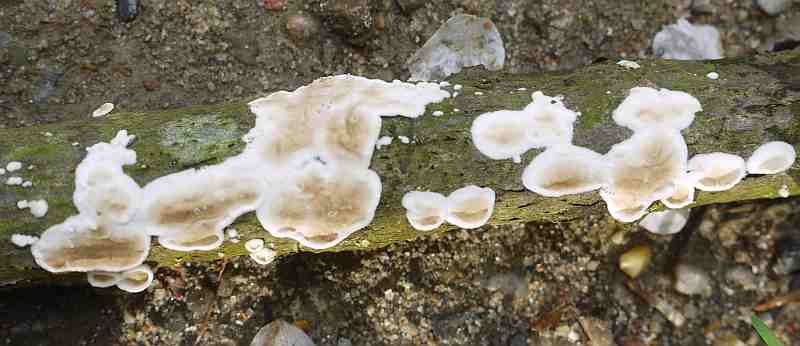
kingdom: Fungi
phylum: Basidiomycota
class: Agaricomycetes
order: Polyporales
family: Irpicaceae
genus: Byssomerulius
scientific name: Byssomerulius corium
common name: læder-åresvamp
